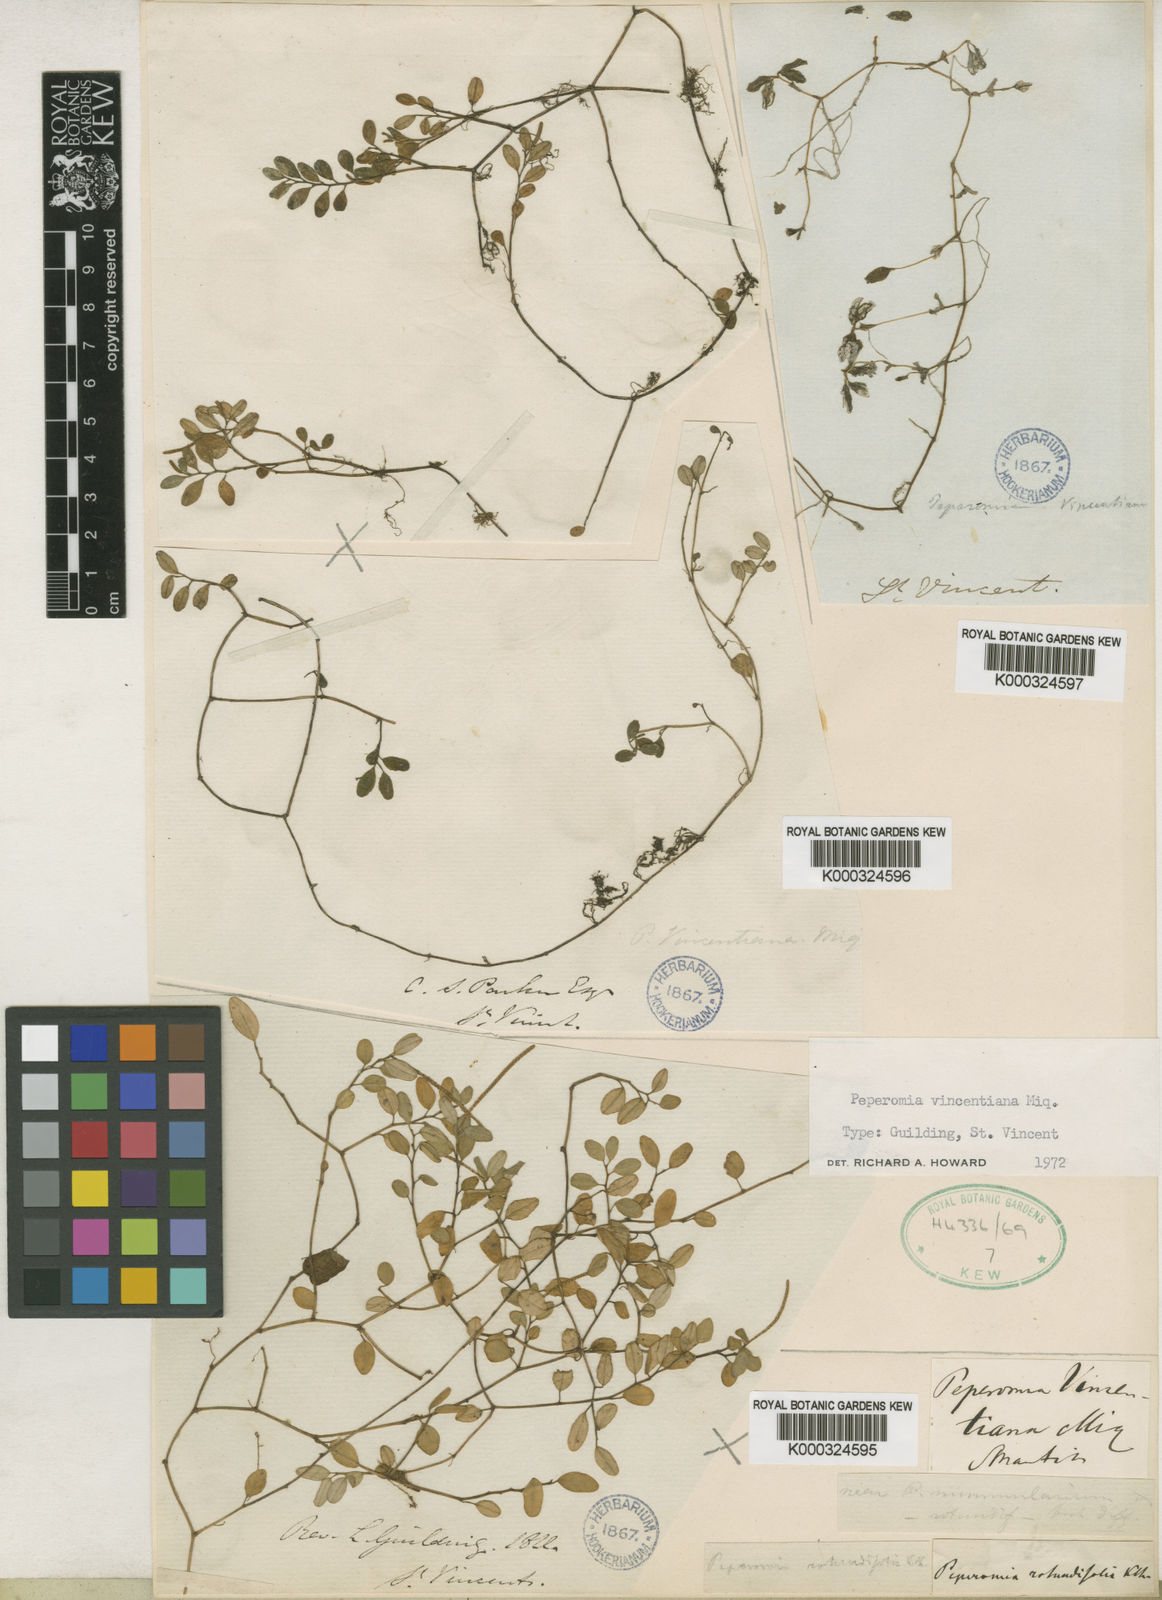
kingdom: Plantae
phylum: Tracheophyta
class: Magnoliopsida
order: Piperales
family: Piperaceae
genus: Peperomia
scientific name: Peperomia trifolia
